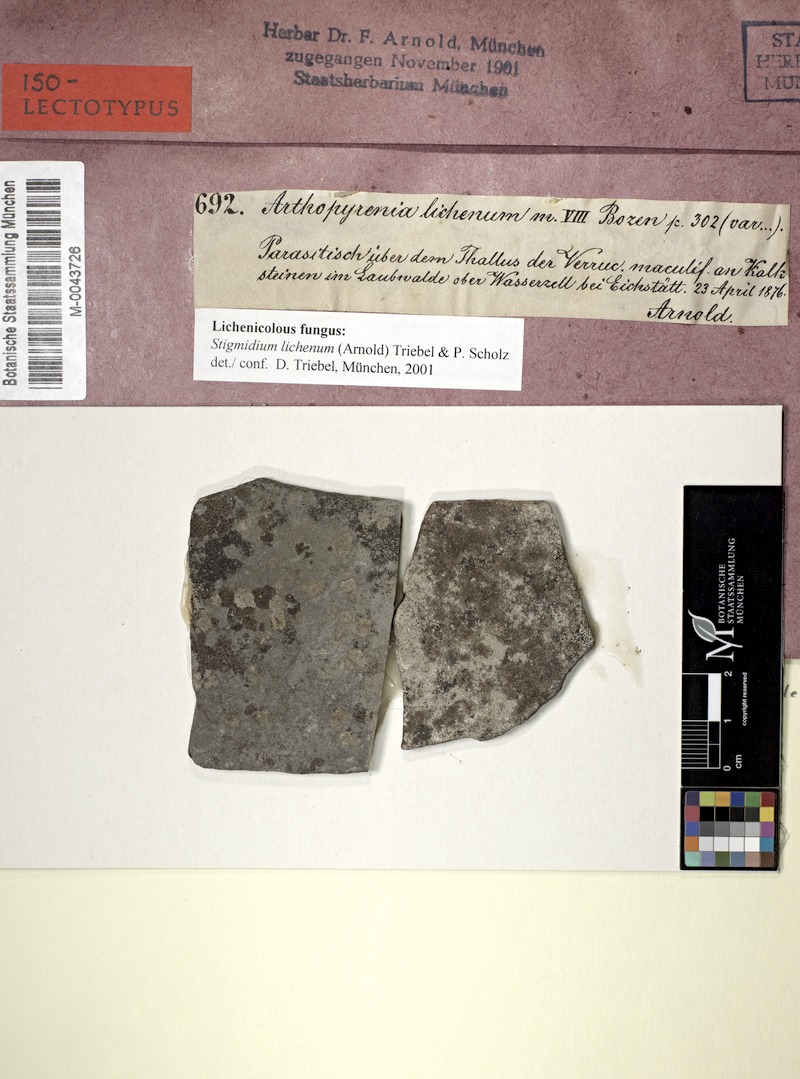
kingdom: Fungi
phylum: Ascomycota
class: Eurotiomycetes
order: Verrucariales
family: Verrucariaceae
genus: Verrucaria
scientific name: Verrucaria maculiformis
